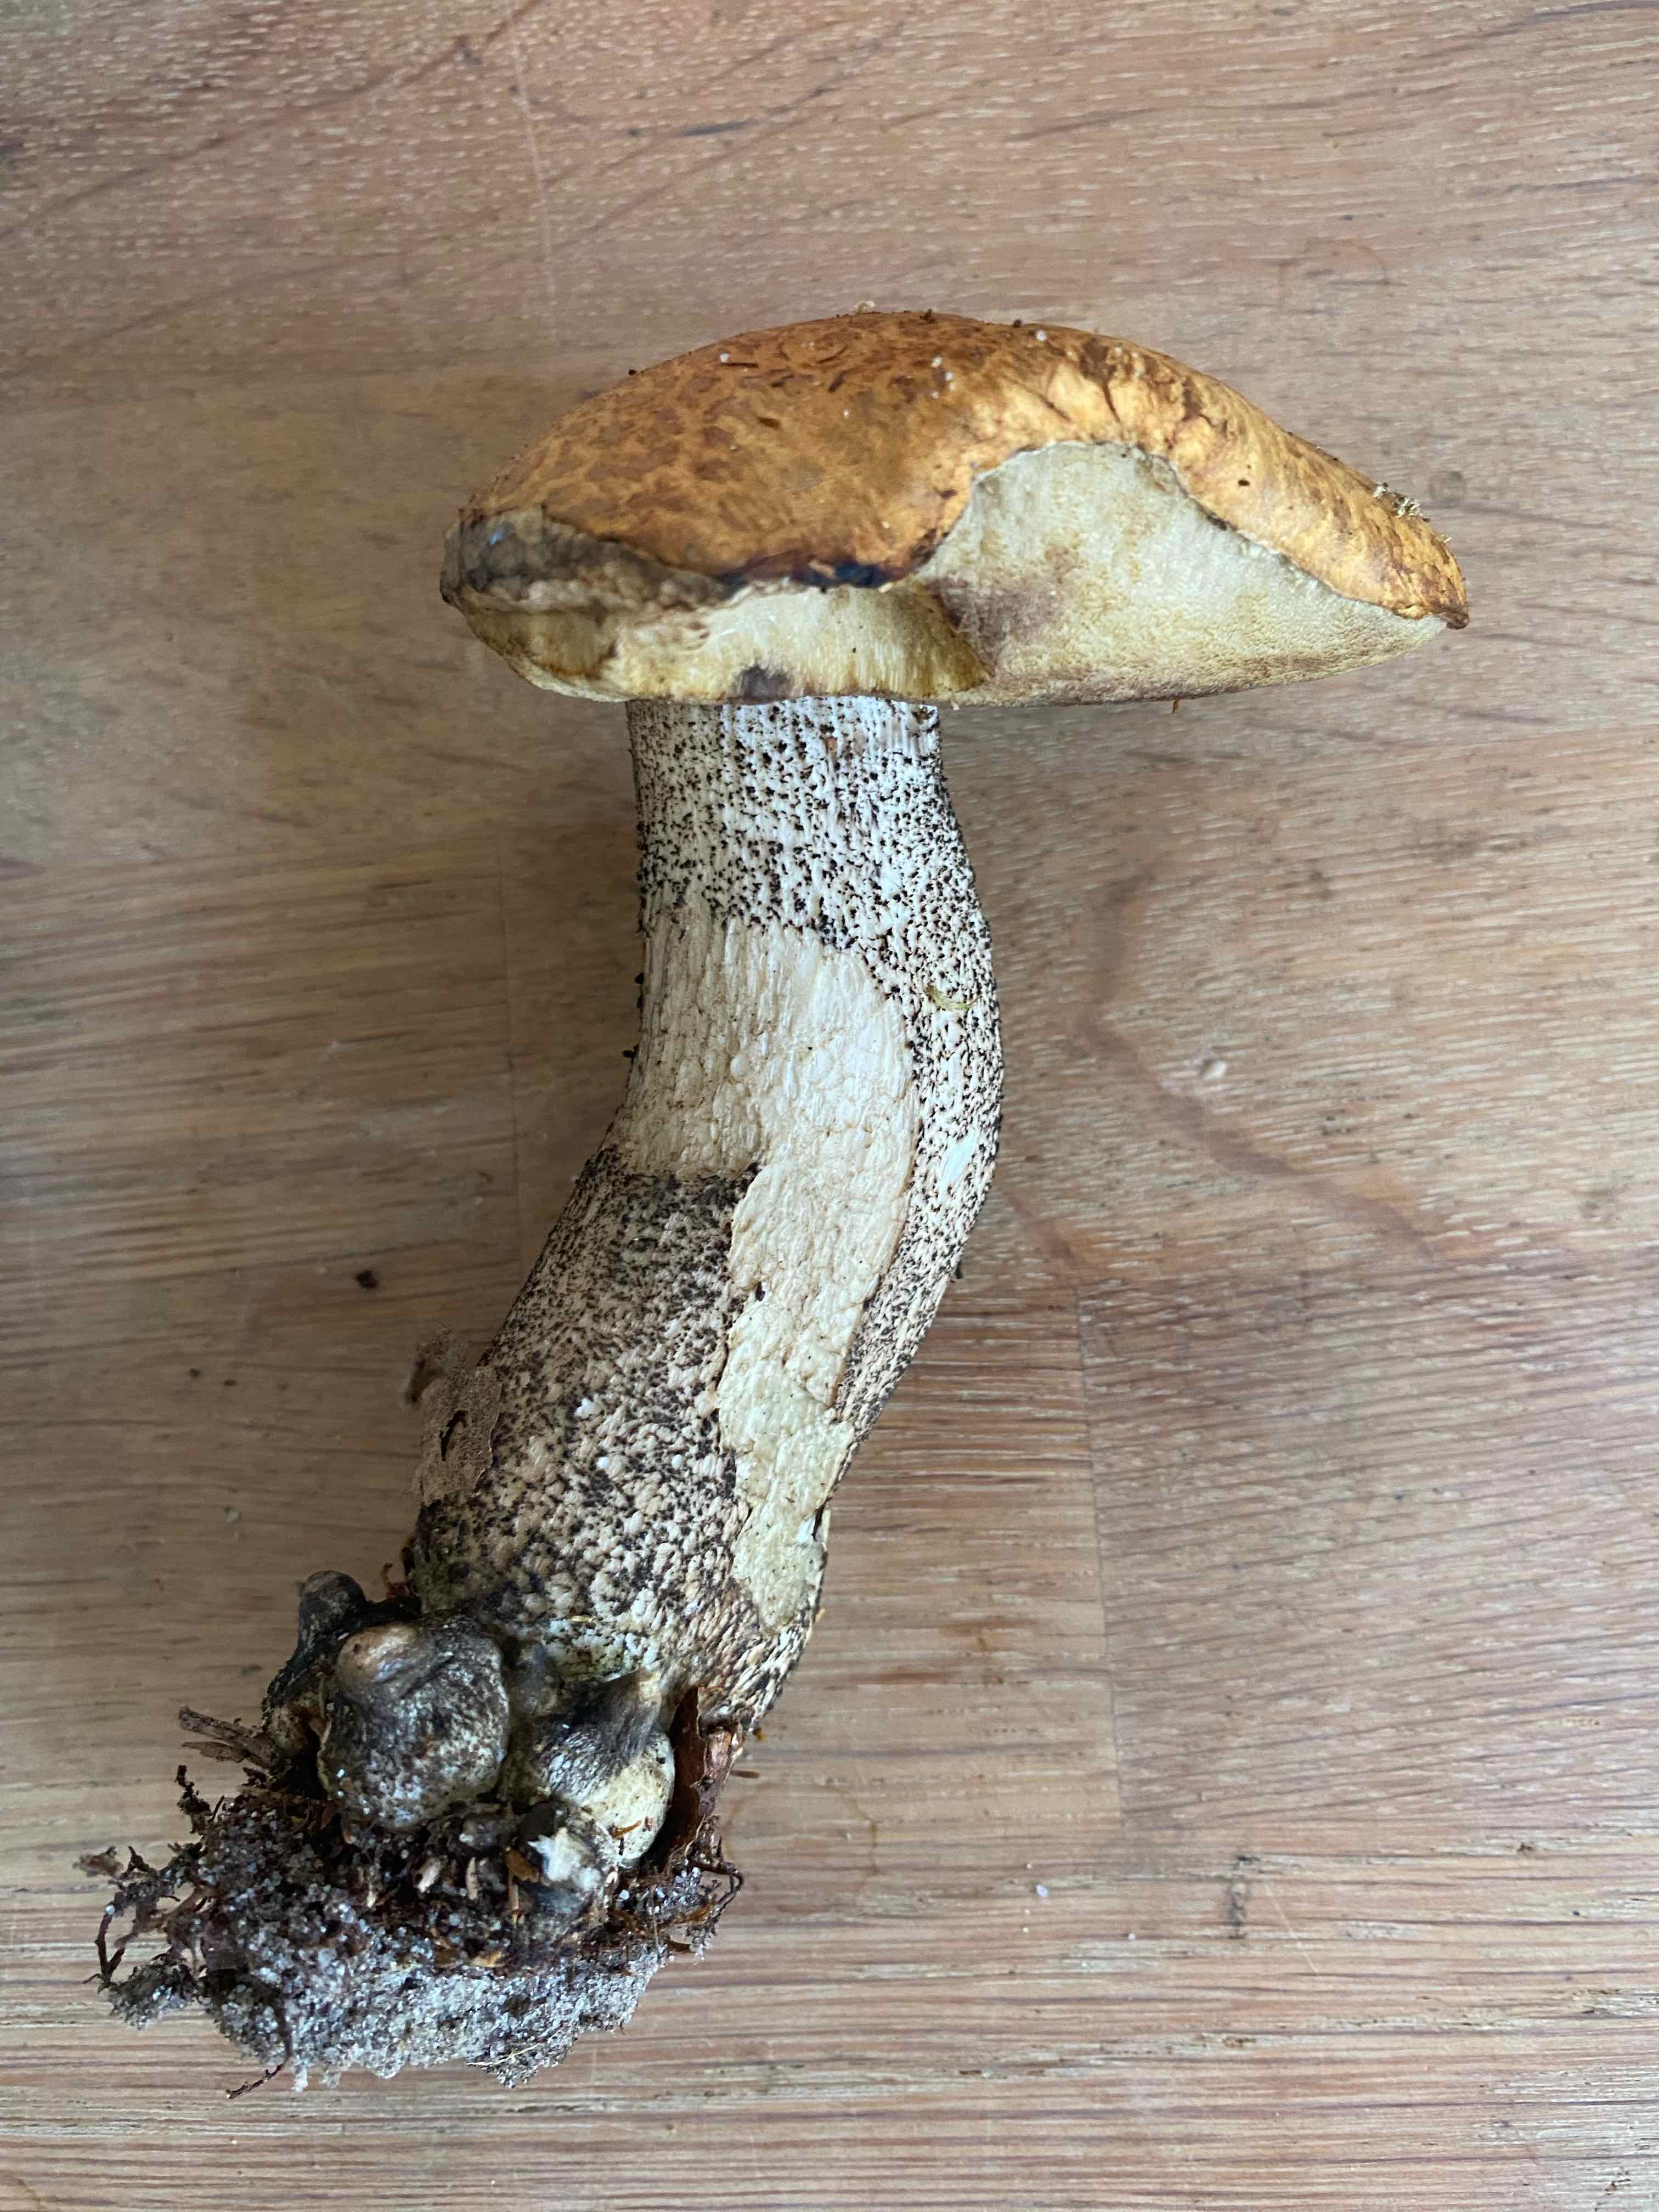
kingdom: Fungi
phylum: Basidiomycota
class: Agaricomycetes
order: Boletales
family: Boletaceae
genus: Leccinum
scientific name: Leccinum versipelle
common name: orange skælrørhat
